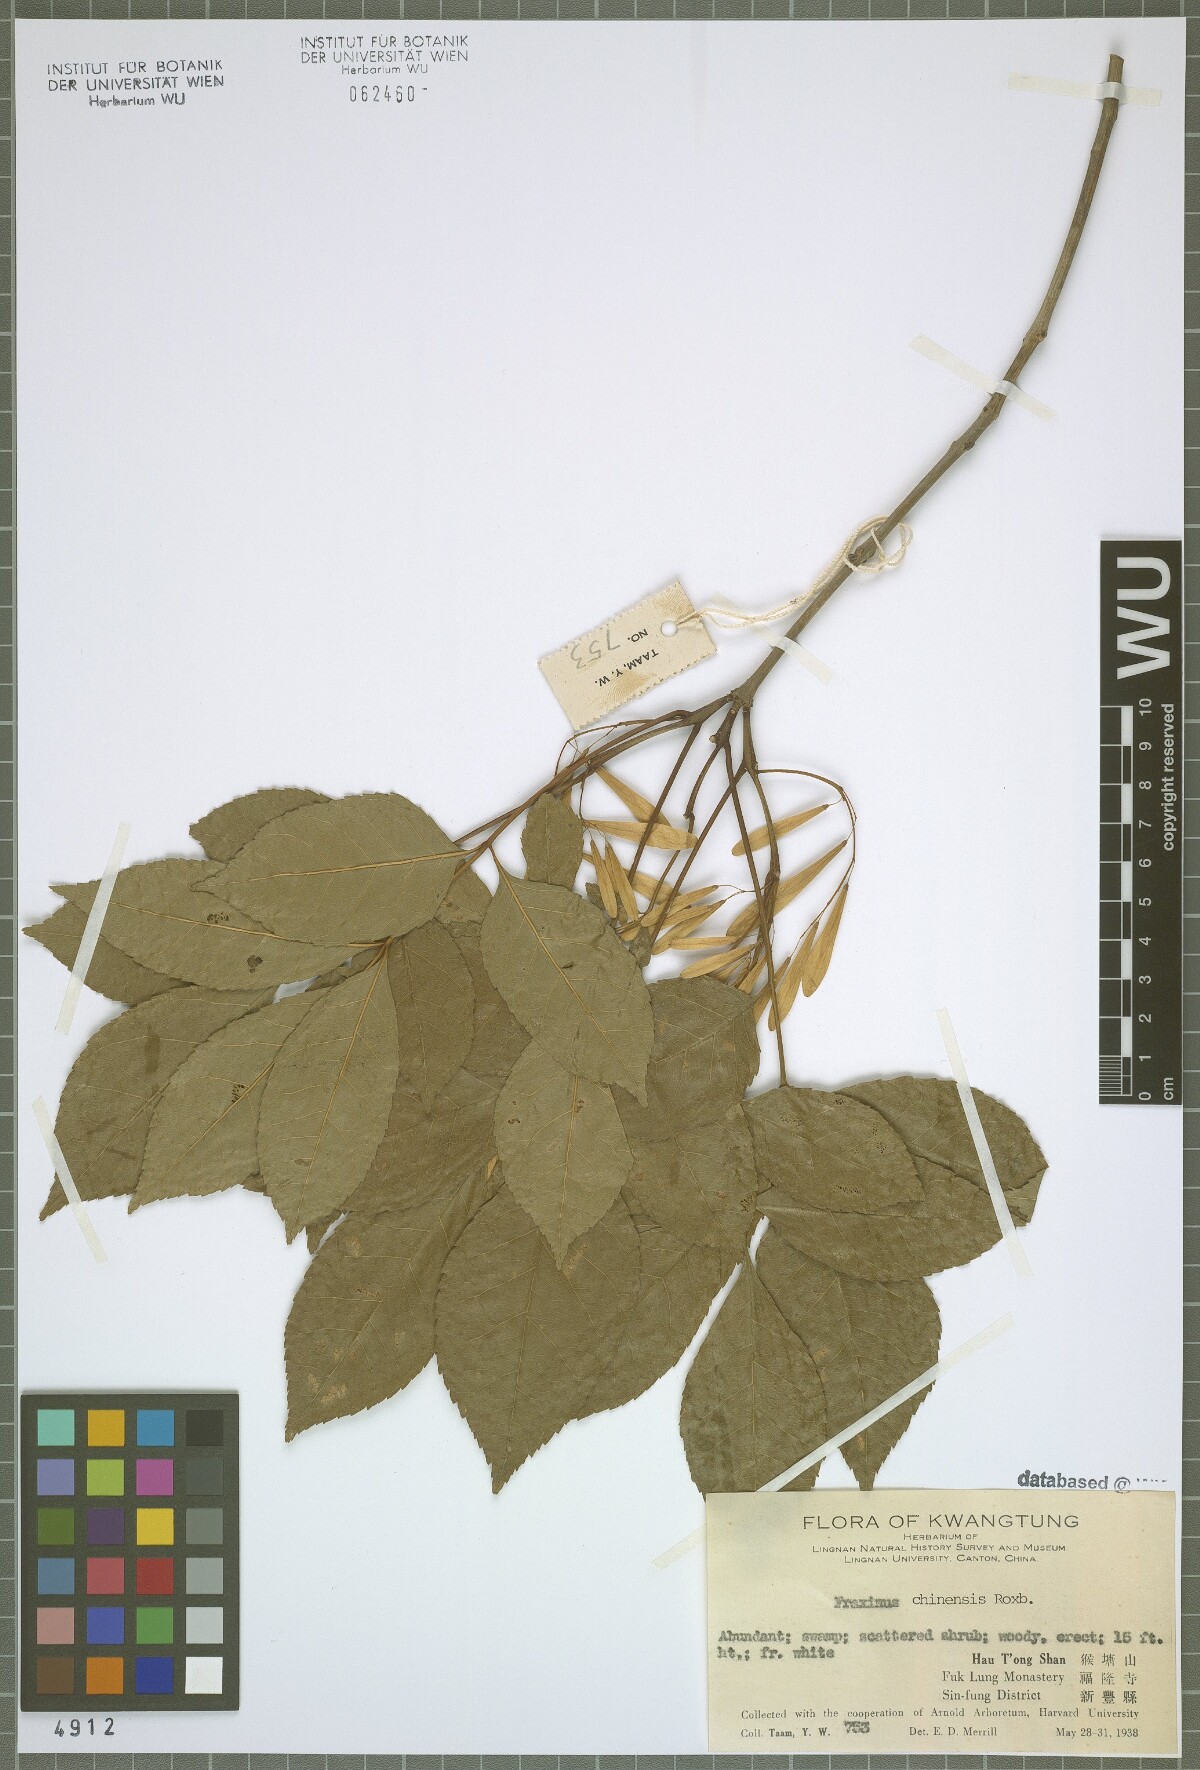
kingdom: Plantae
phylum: Tracheophyta
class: Magnoliopsida
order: Lamiales
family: Oleaceae
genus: Fraxinus
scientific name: Fraxinus chinensis
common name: Chinese ash
